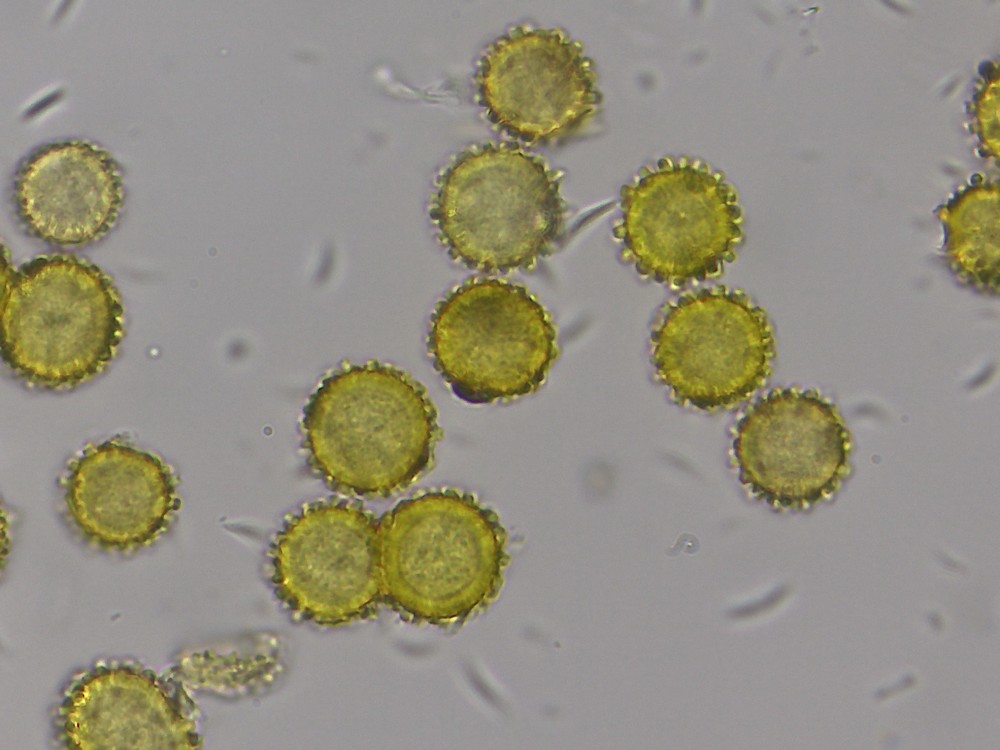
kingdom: Fungi
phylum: Ascomycota
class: Sordariomycetes
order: Hypocreales
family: Hypocreaceae
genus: Hypomyces
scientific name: Hypomyces microspermus
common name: dværgrørhat-snylteskorpe
